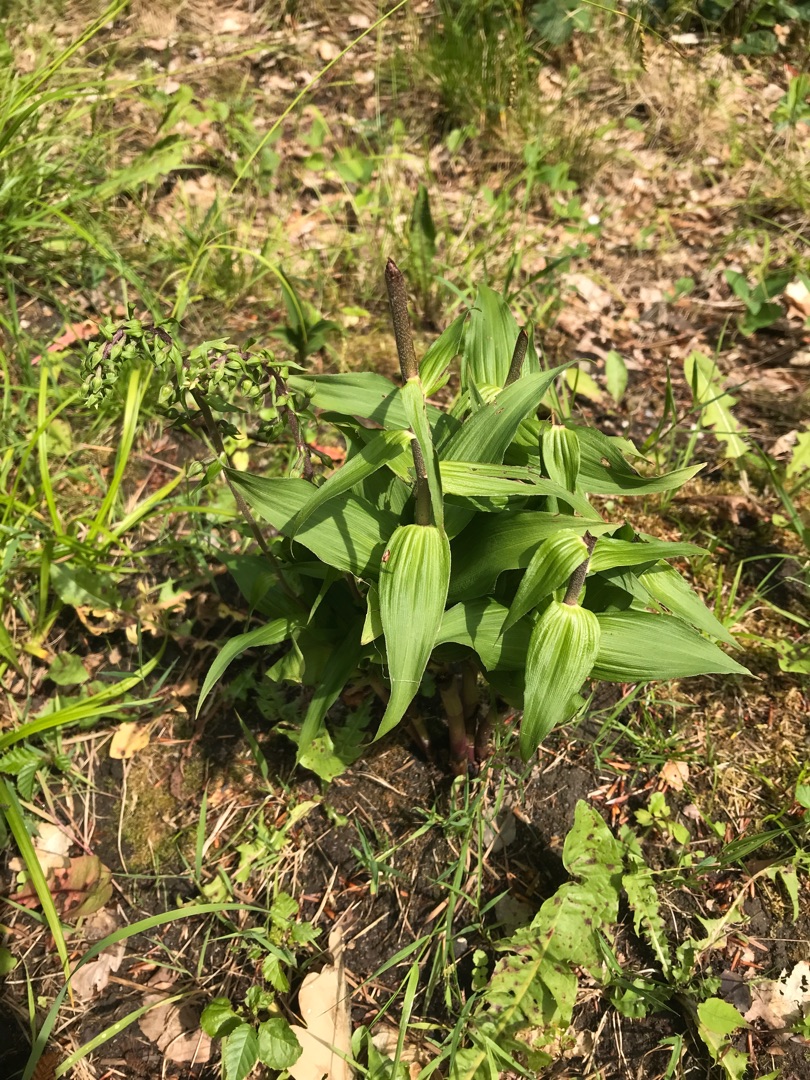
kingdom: Plantae
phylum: Tracheophyta
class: Liliopsida
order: Asparagales
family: Orchidaceae
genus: Epipactis
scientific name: Epipactis helleborine
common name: Skov-hullæbe
